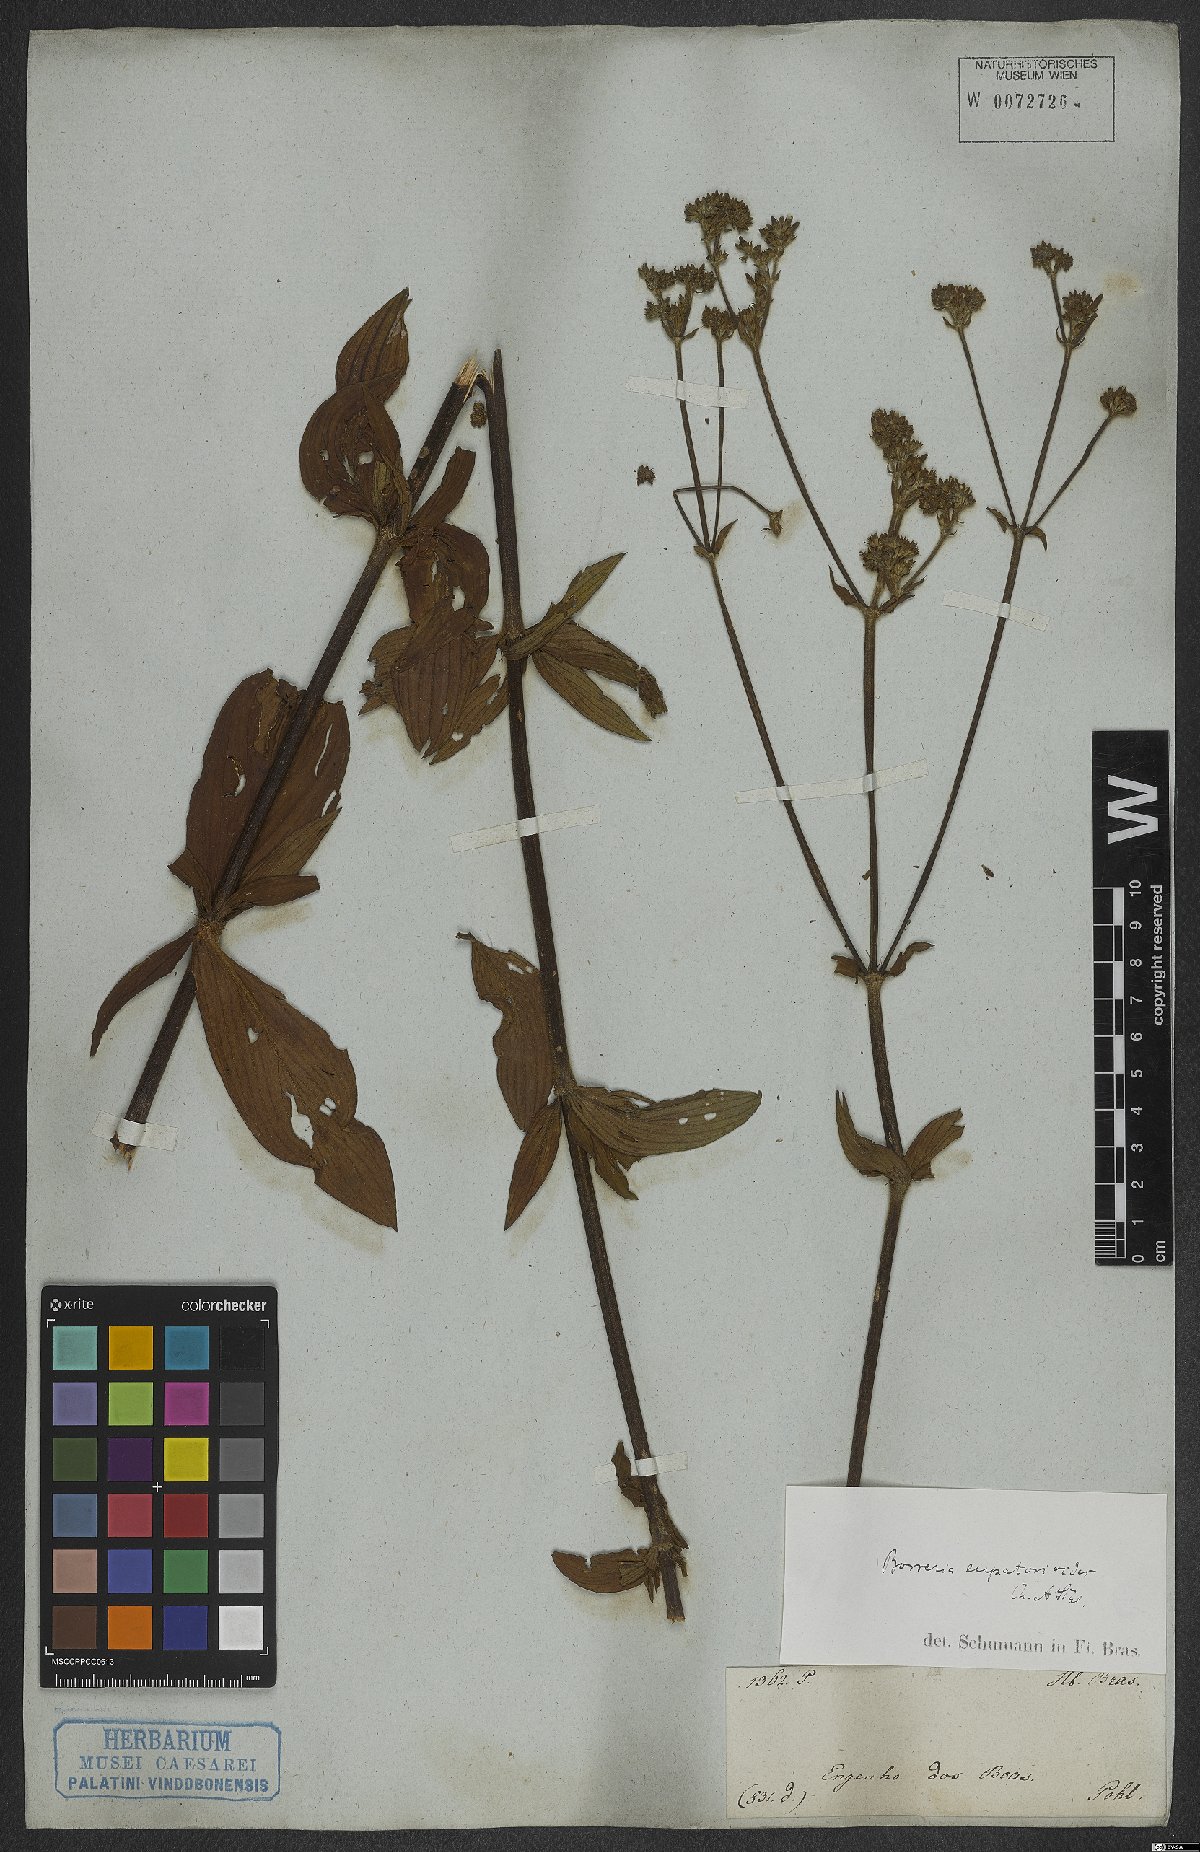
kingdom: Plantae
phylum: Tracheophyta
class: Magnoliopsida
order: Gentianales
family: Rubiaceae
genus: Galianthe
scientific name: Galianthe eupatorioides
